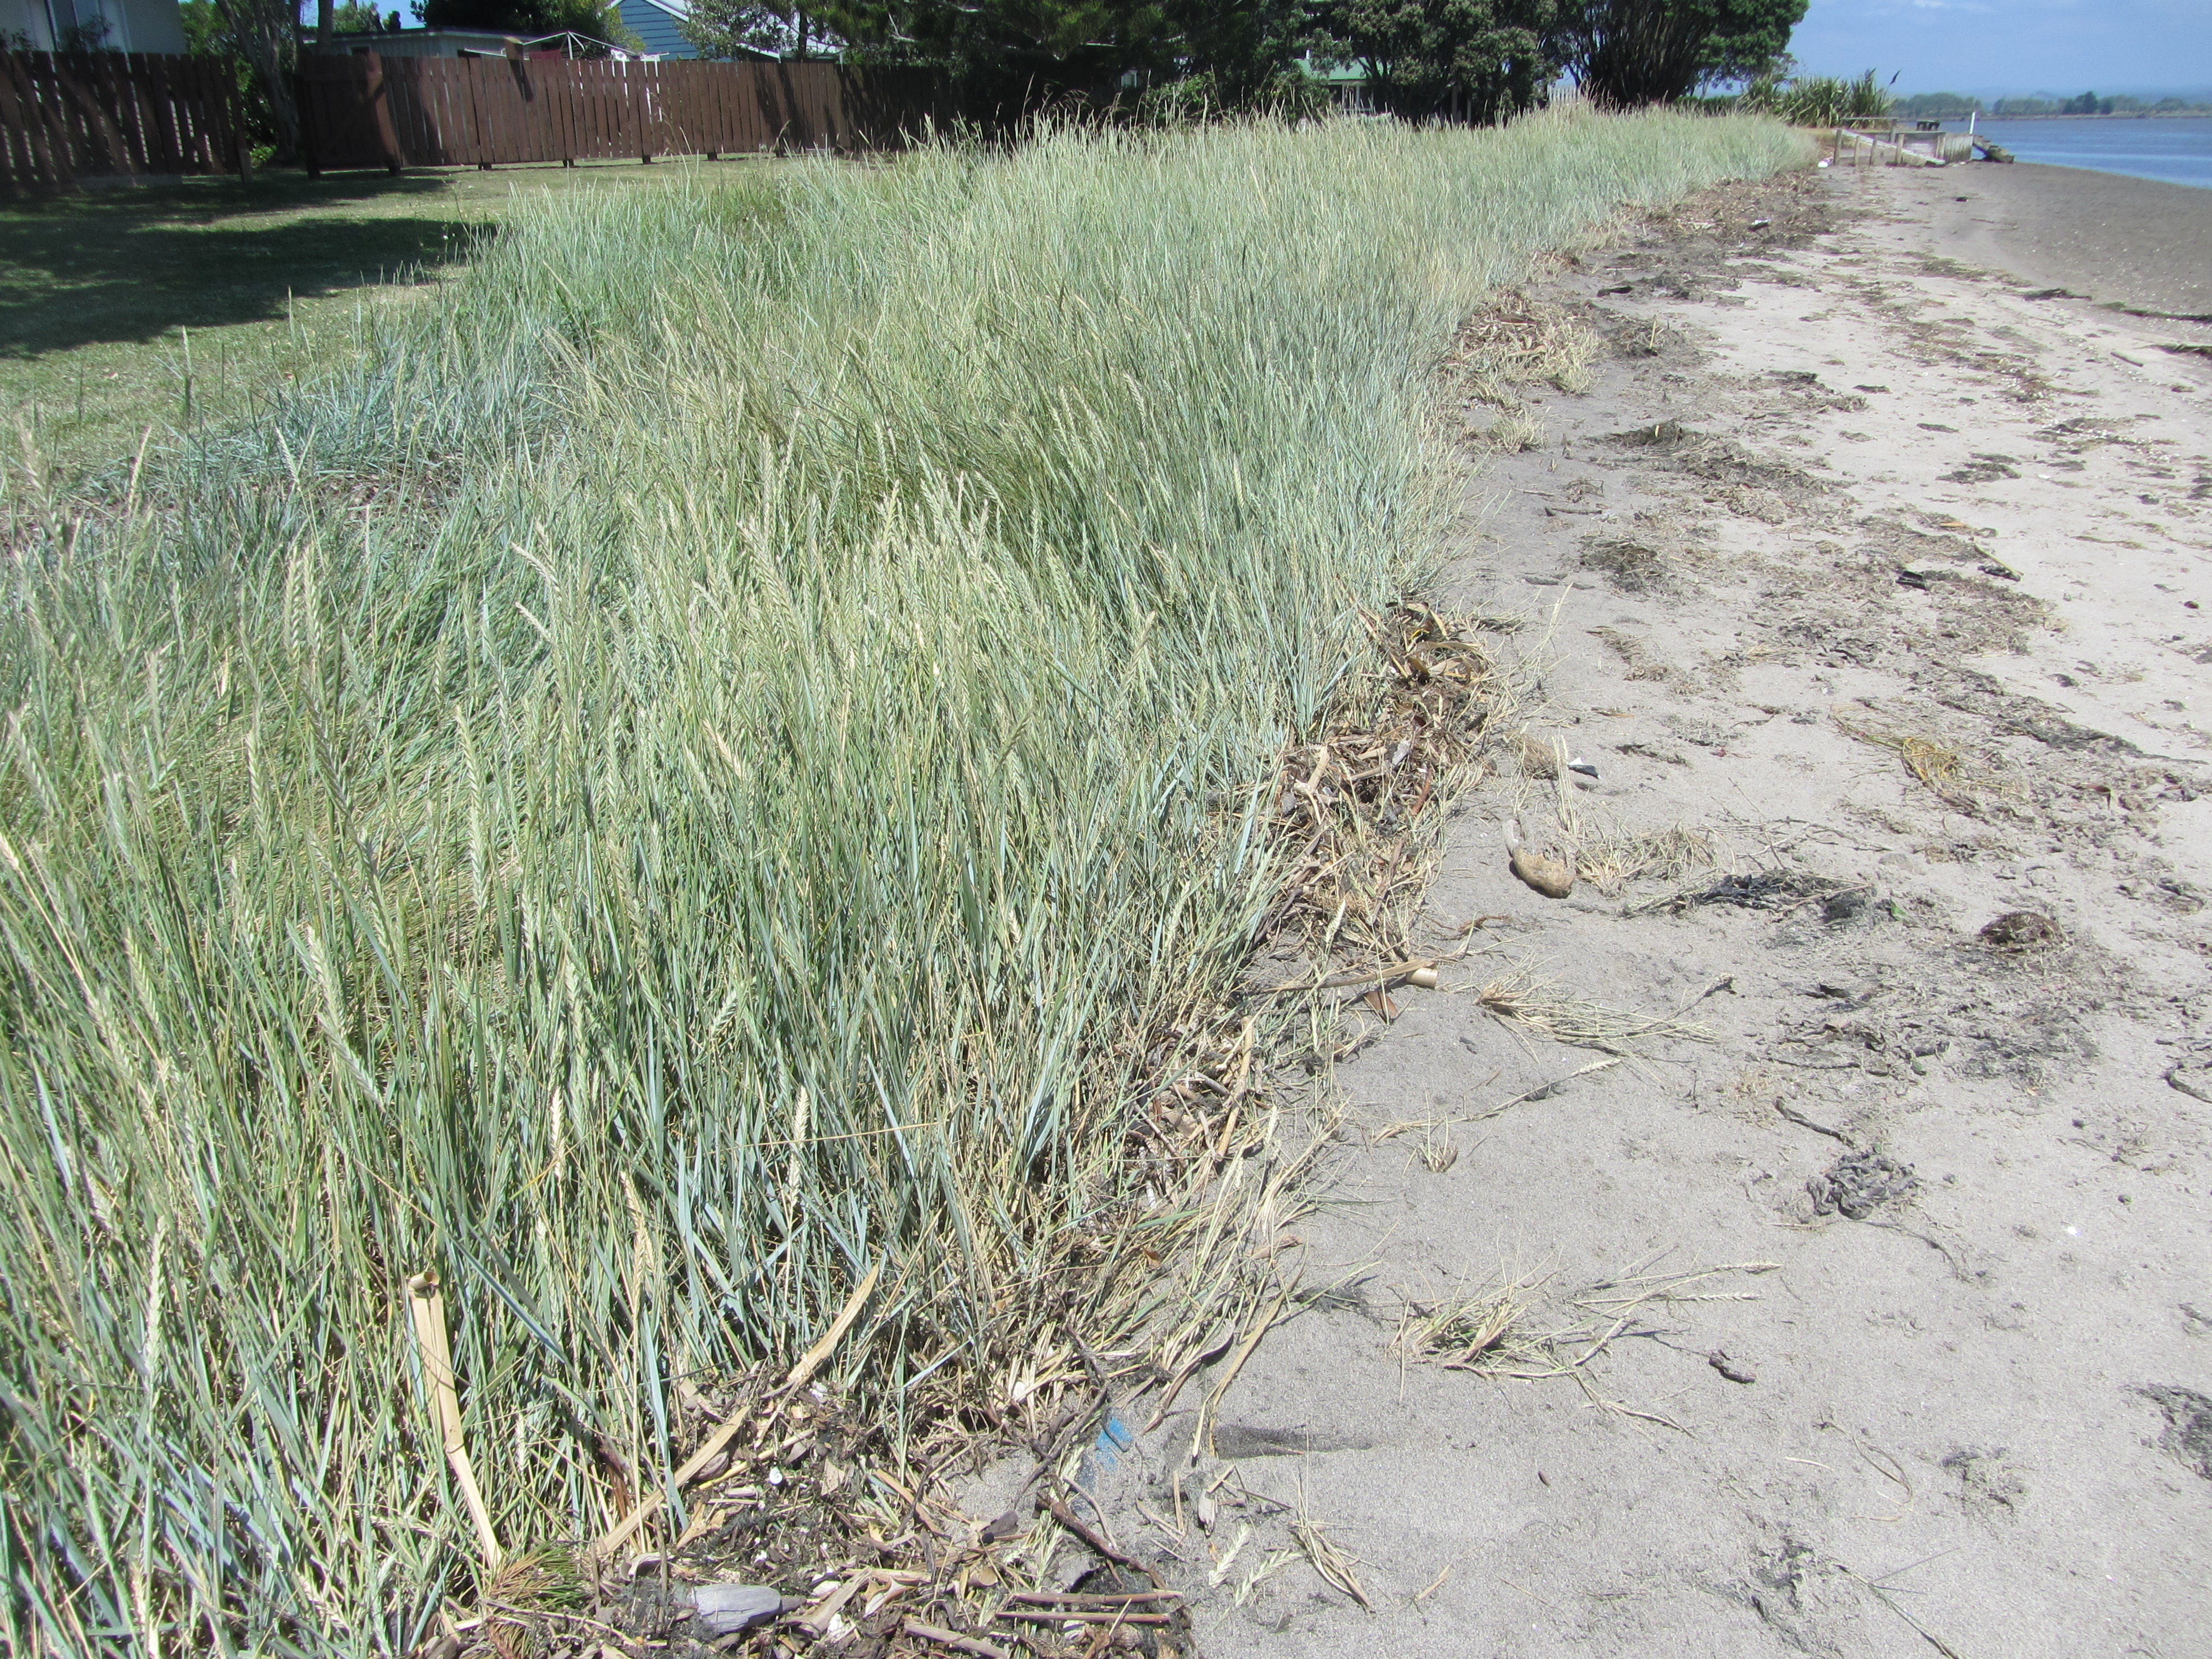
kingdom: Plantae
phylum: Tracheophyta
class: Liliopsida
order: Poales
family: Poaceae
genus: Thinopyrum
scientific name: Thinopyrum acutum
